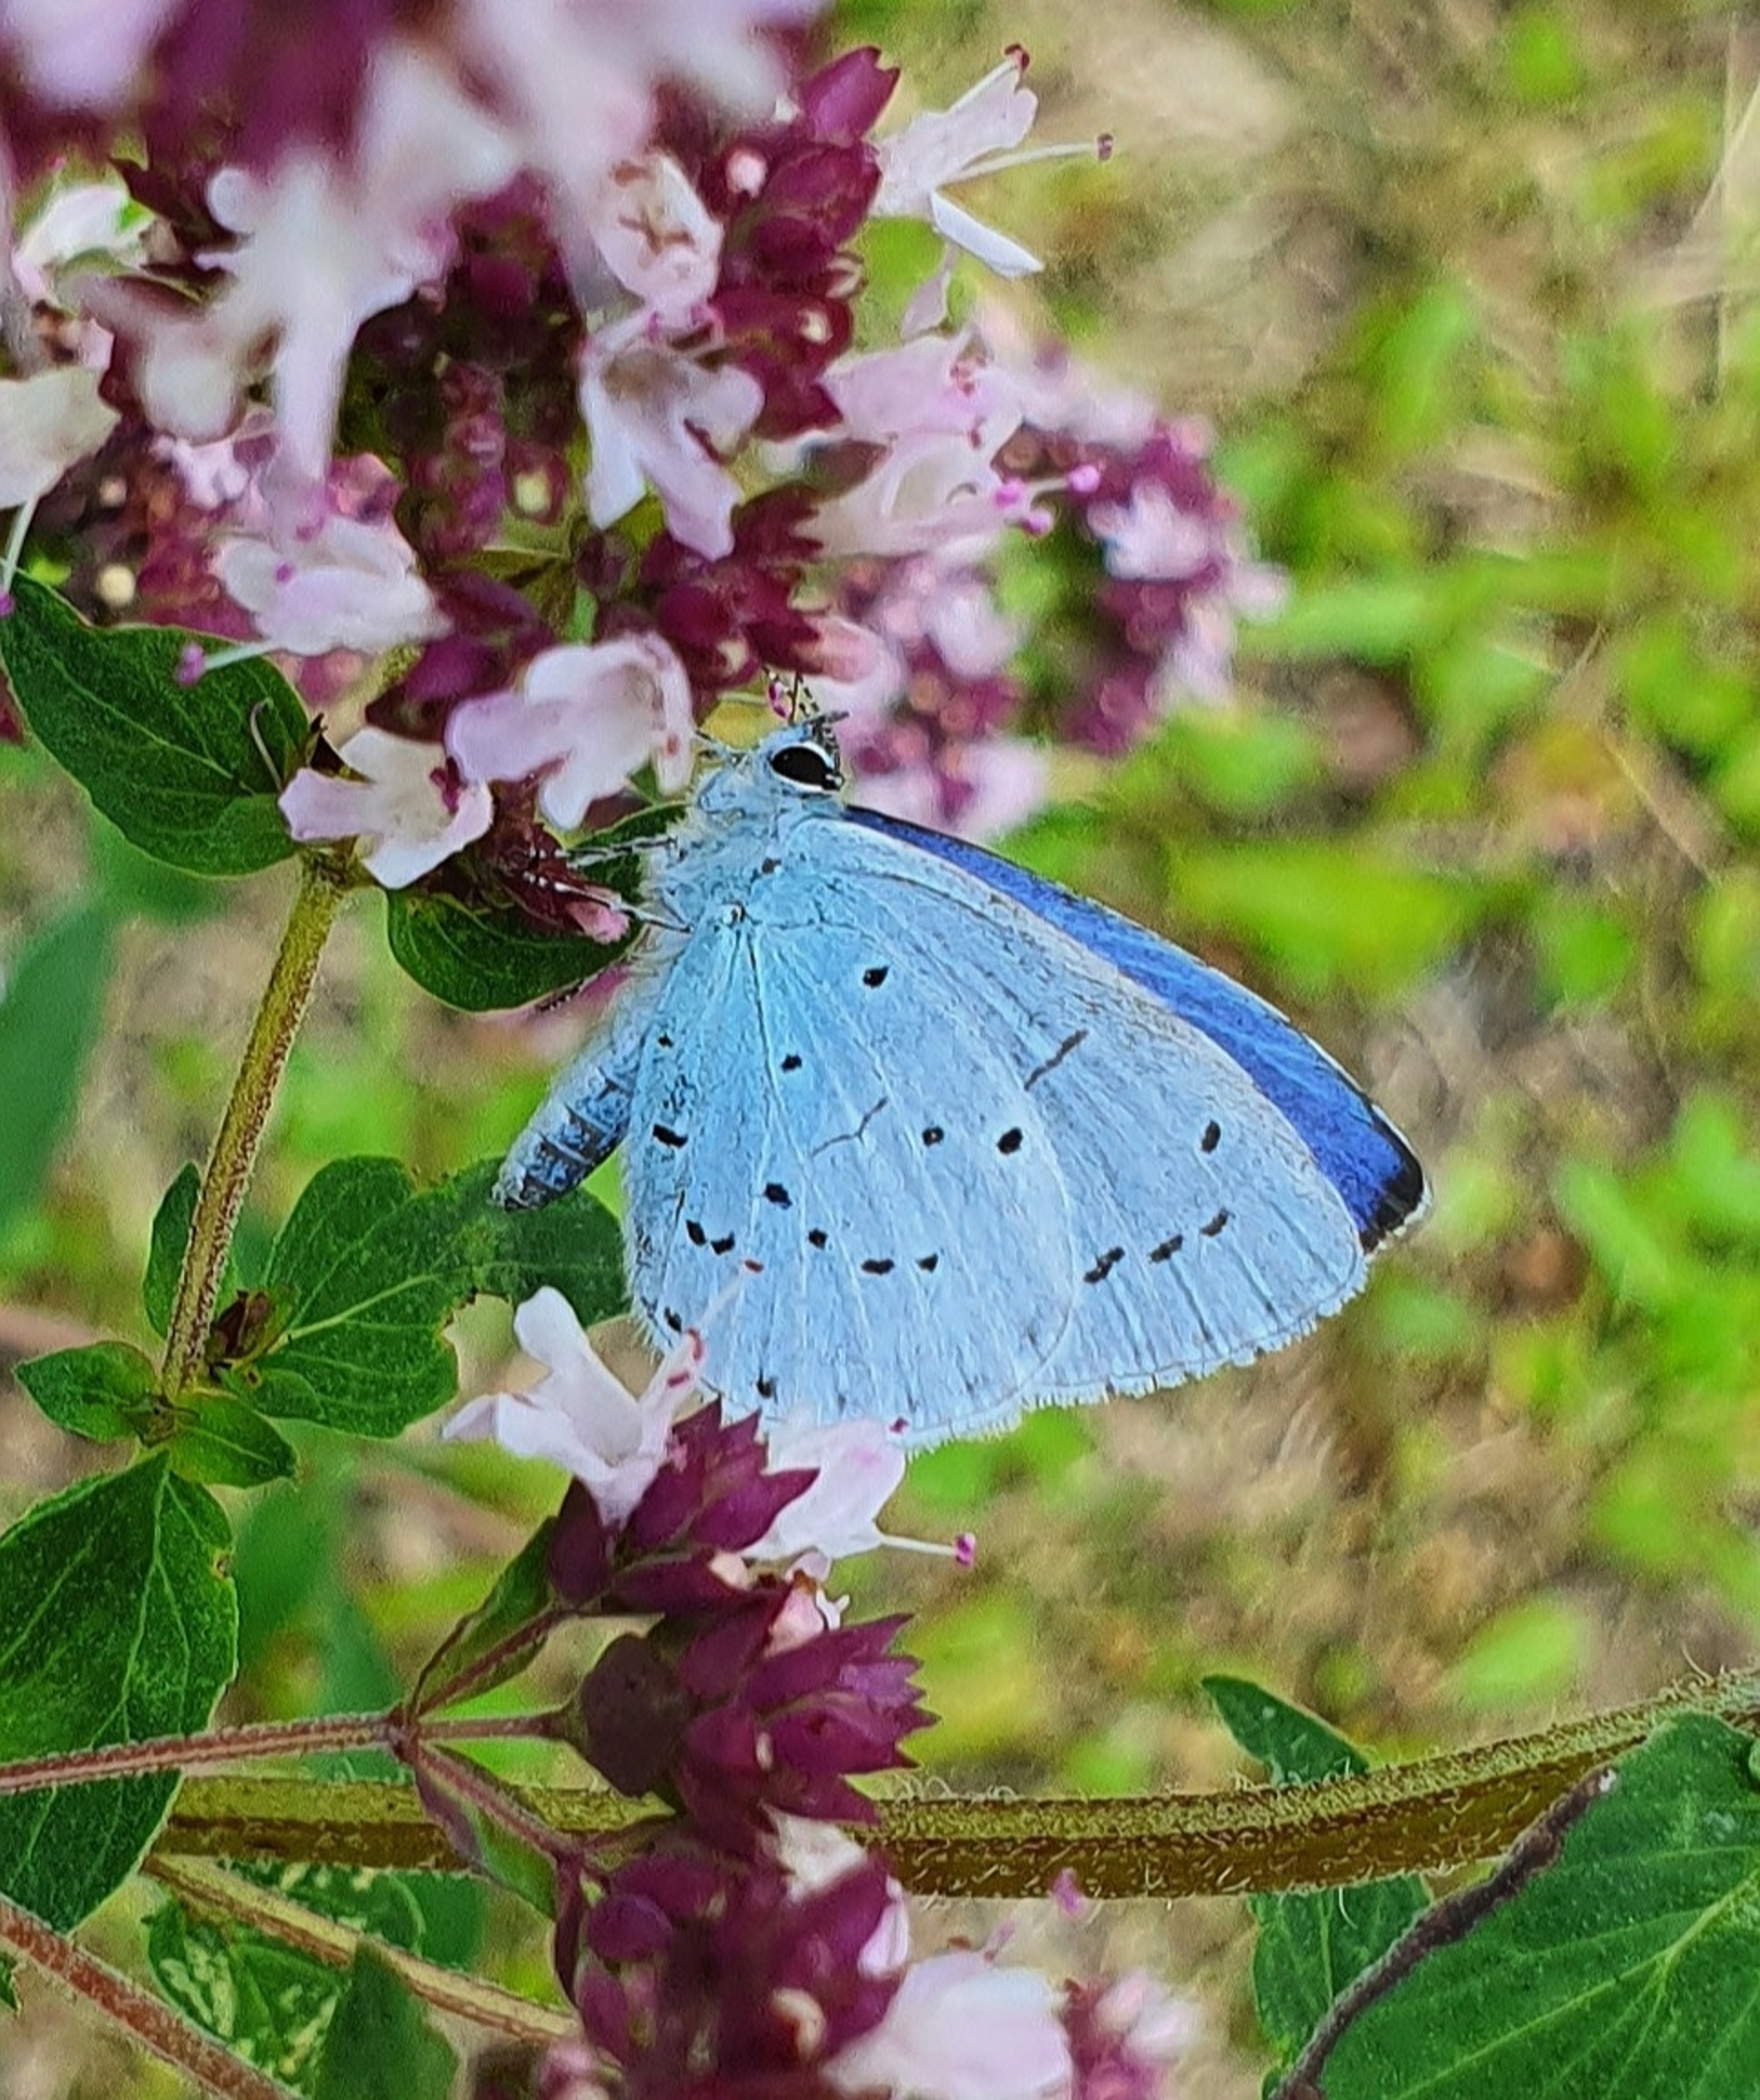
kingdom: Animalia
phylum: Arthropoda
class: Insecta
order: Lepidoptera
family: Lycaenidae
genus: Celastrina
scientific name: Celastrina argiolus
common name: Skovblåfugl
